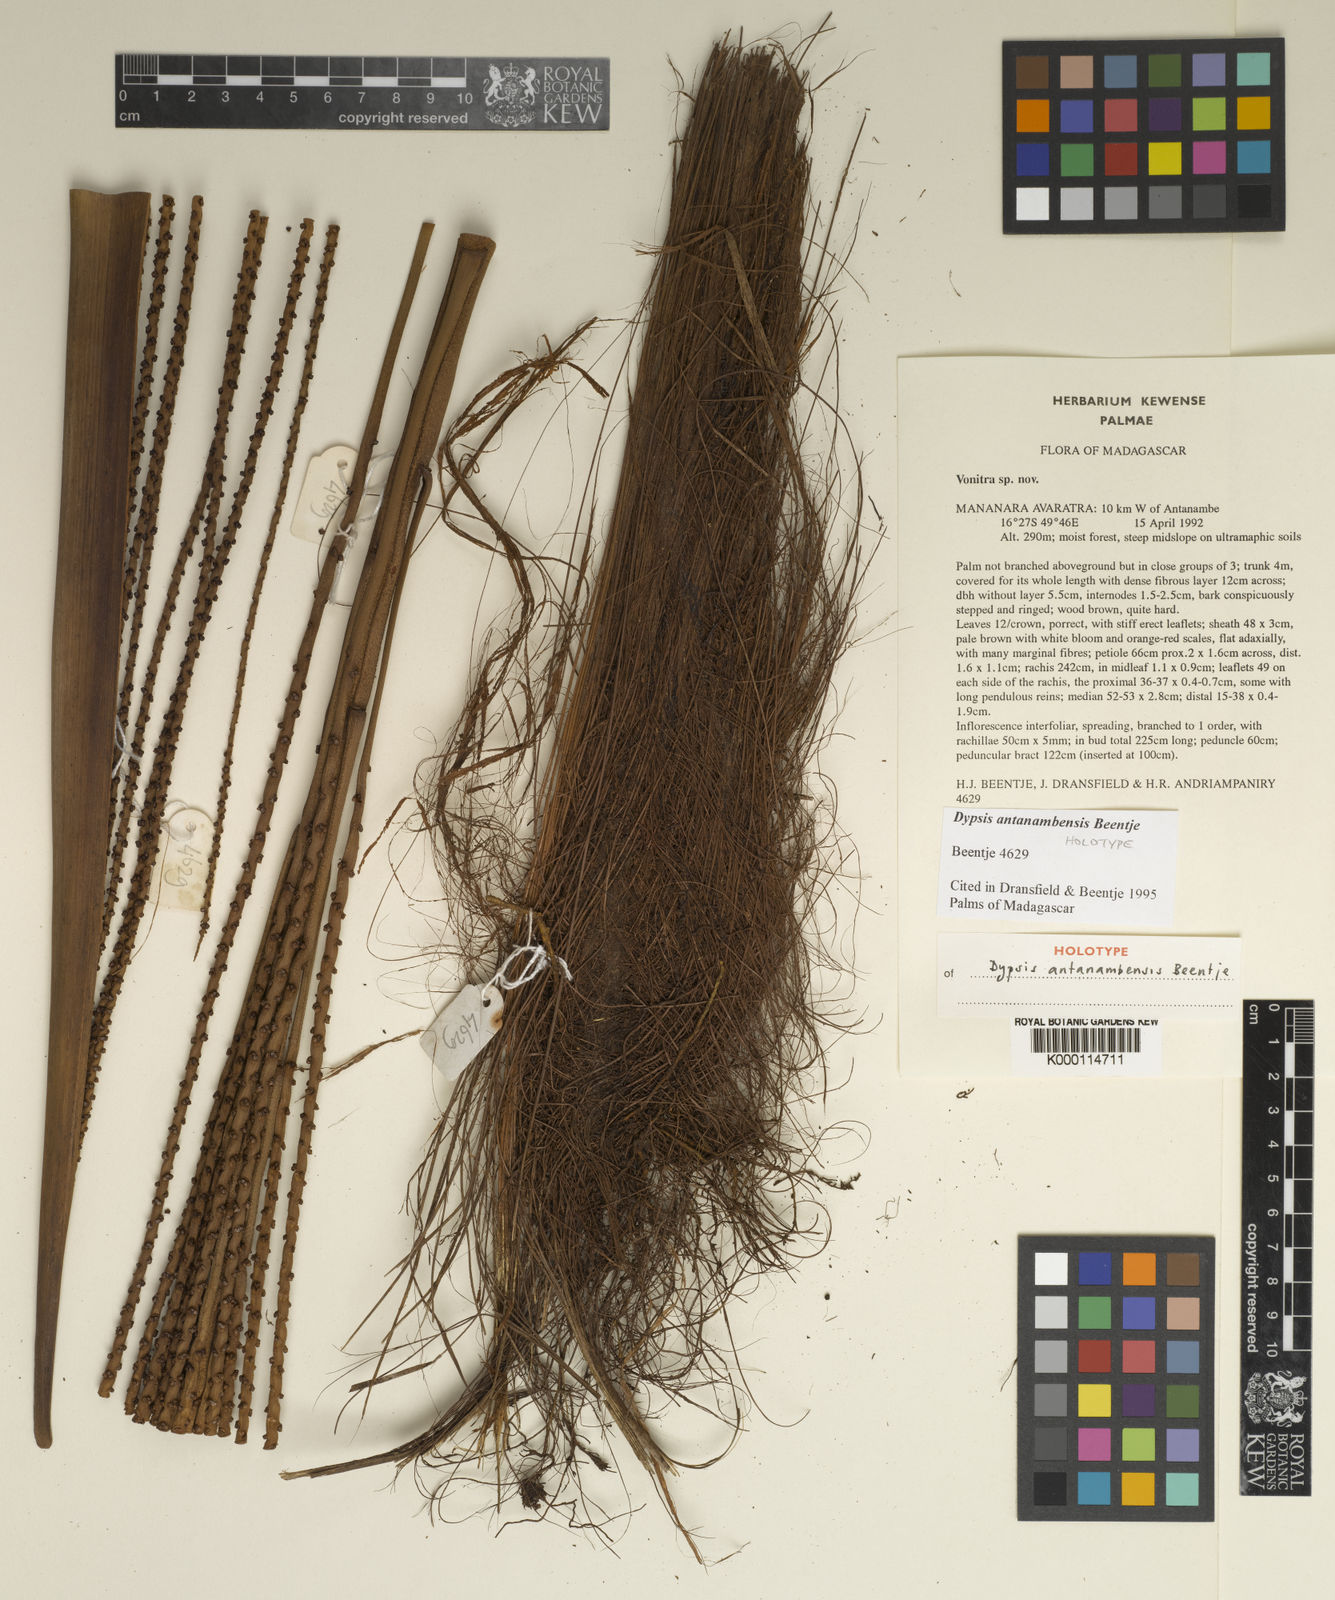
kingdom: Plantae
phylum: Tracheophyta
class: Liliopsida
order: Arecales
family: Arecaceae
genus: Dypsis
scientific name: Dypsis antanambensis
